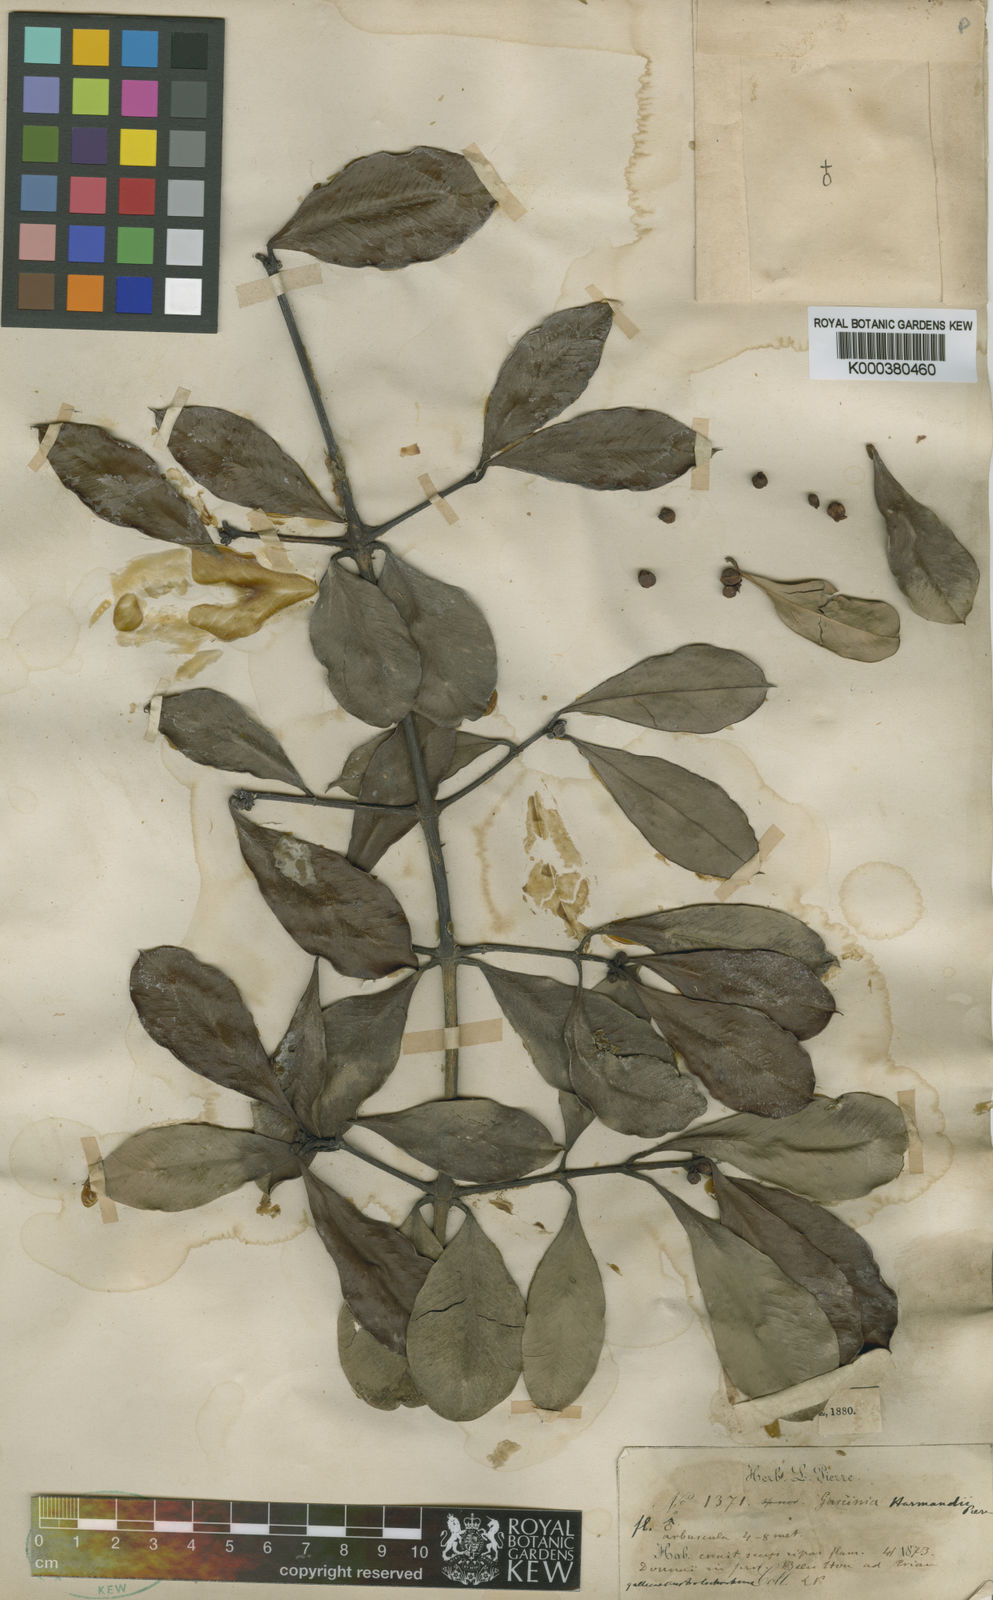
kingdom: Plantae
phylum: Tracheophyta
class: Magnoliopsida
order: Malpighiales
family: Clusiaceae
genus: Garcinia
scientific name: Garcinia harmandii
